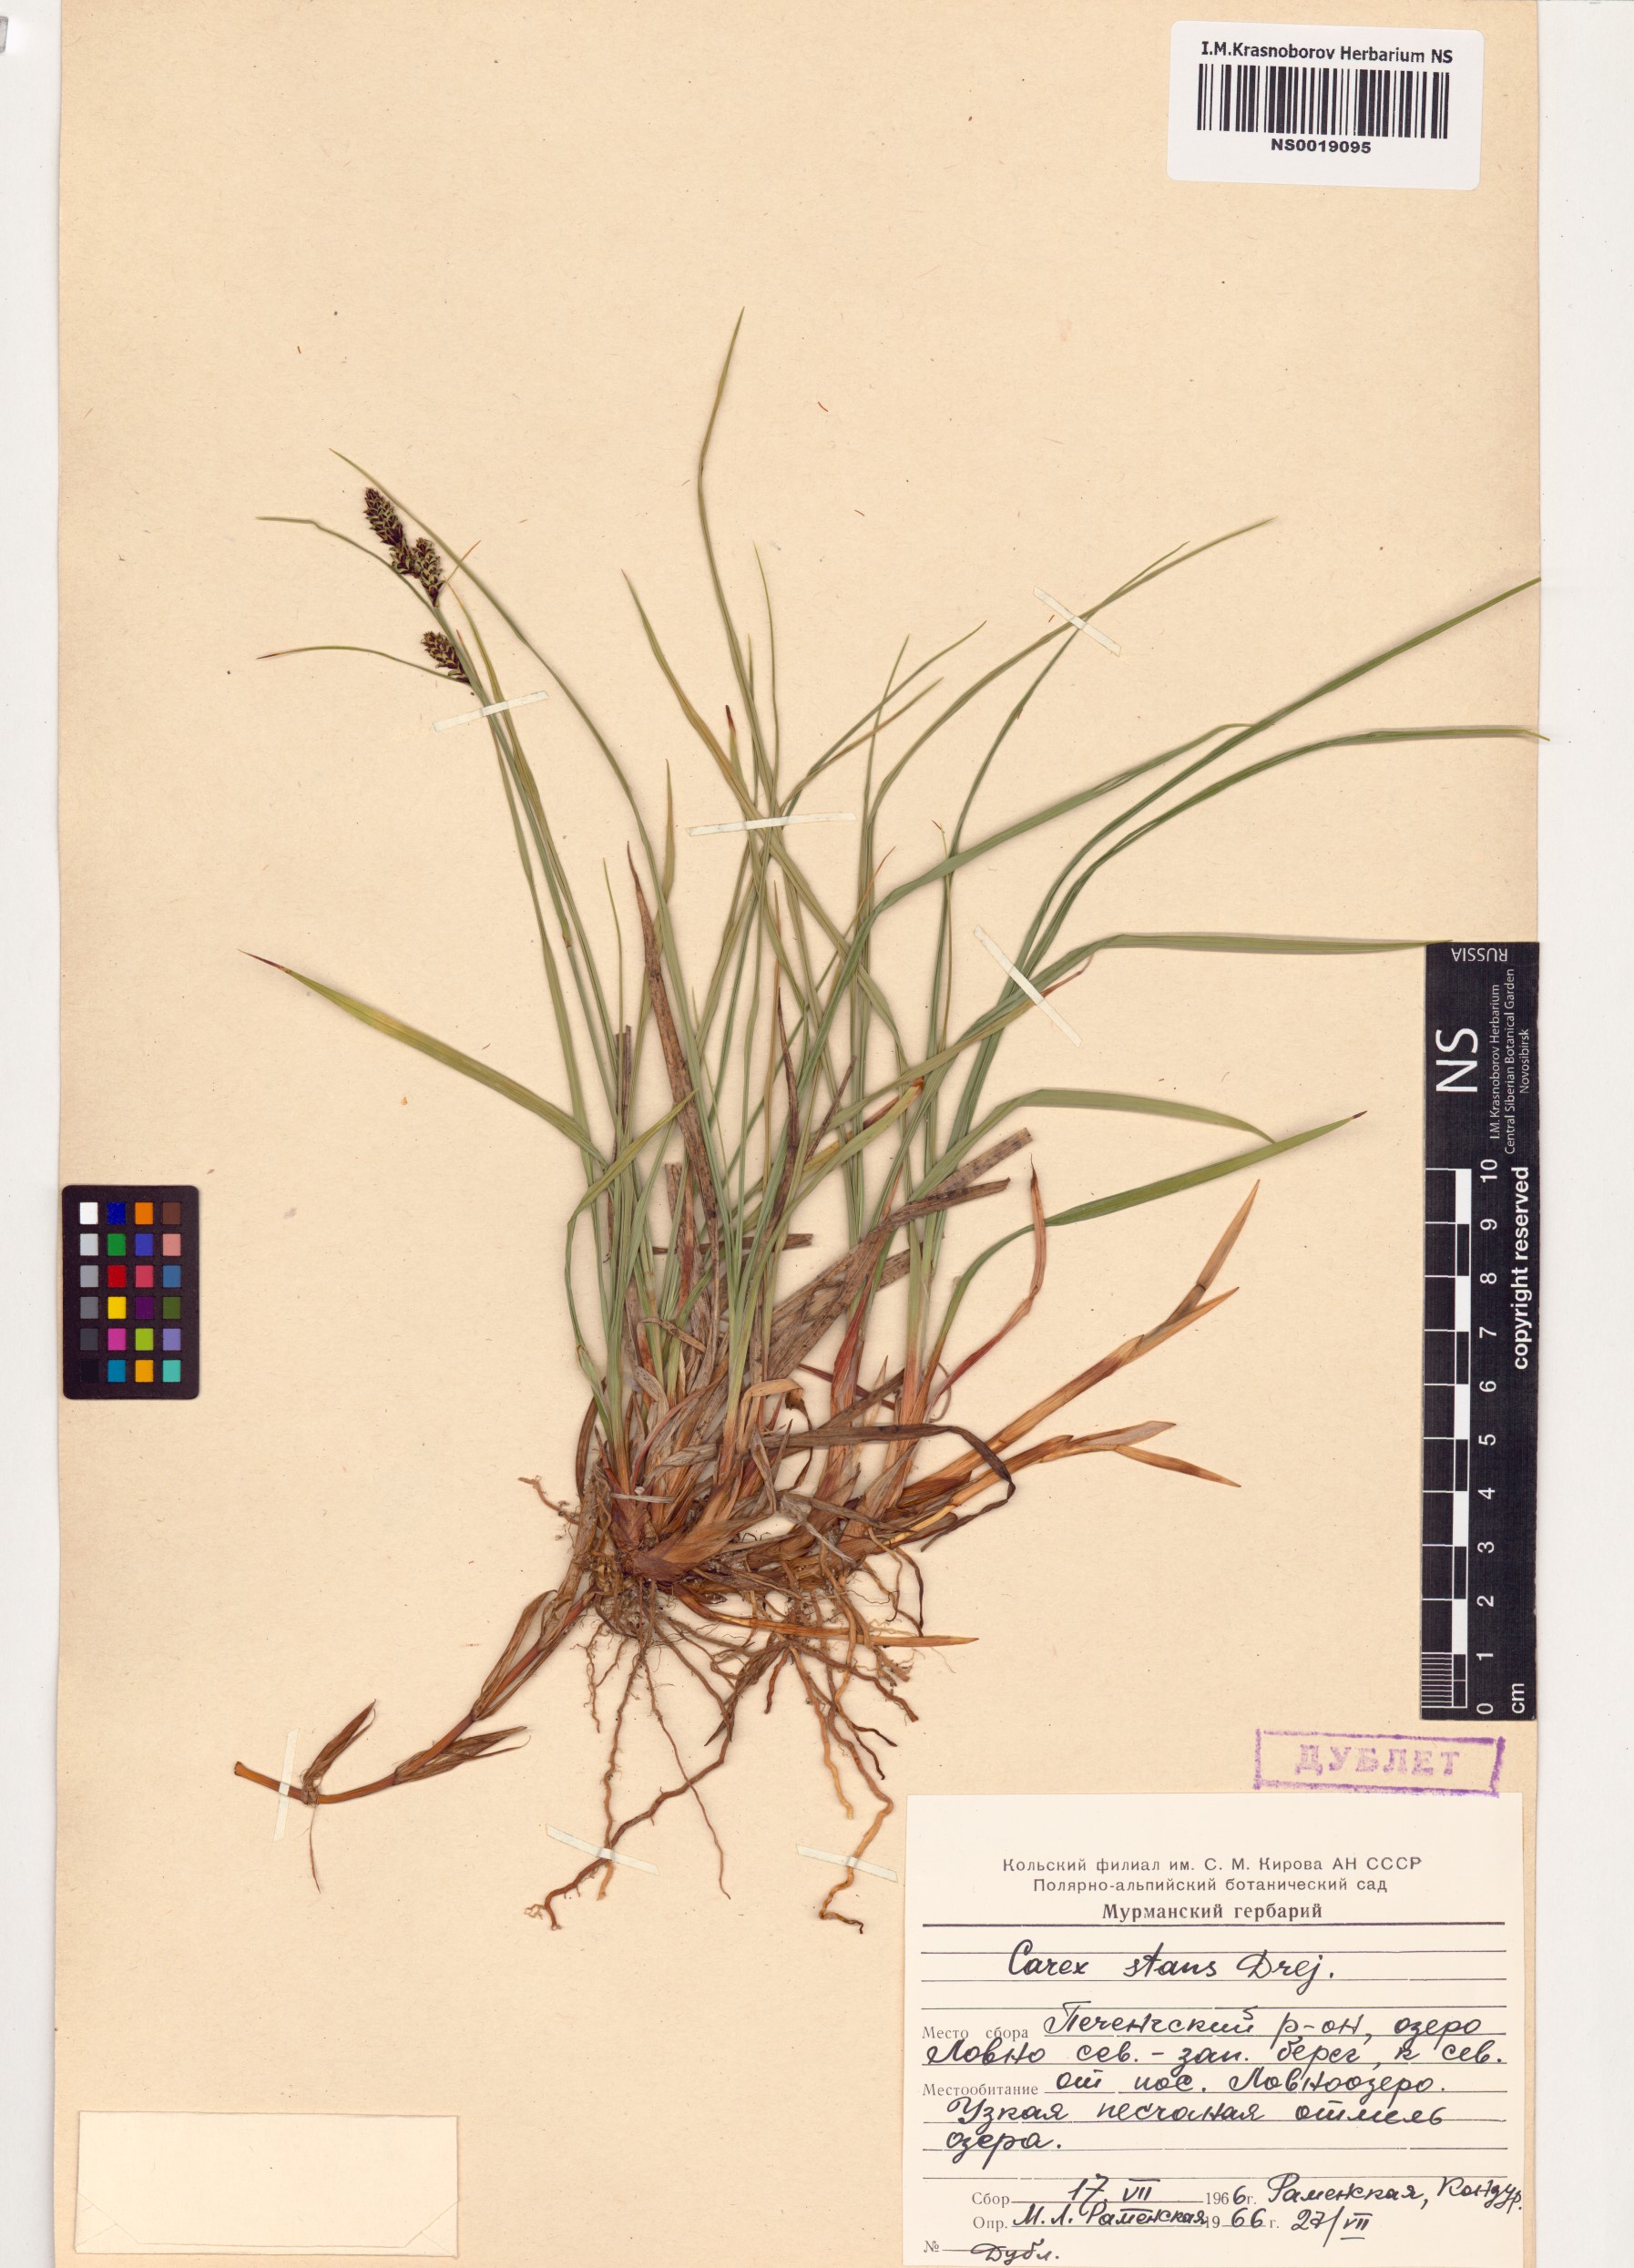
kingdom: Plantae
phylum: Tracheophyta
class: Liliopsida
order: Poales
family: Cyperaceae
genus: Carex
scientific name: Carex aquatilis
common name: Water sedge
